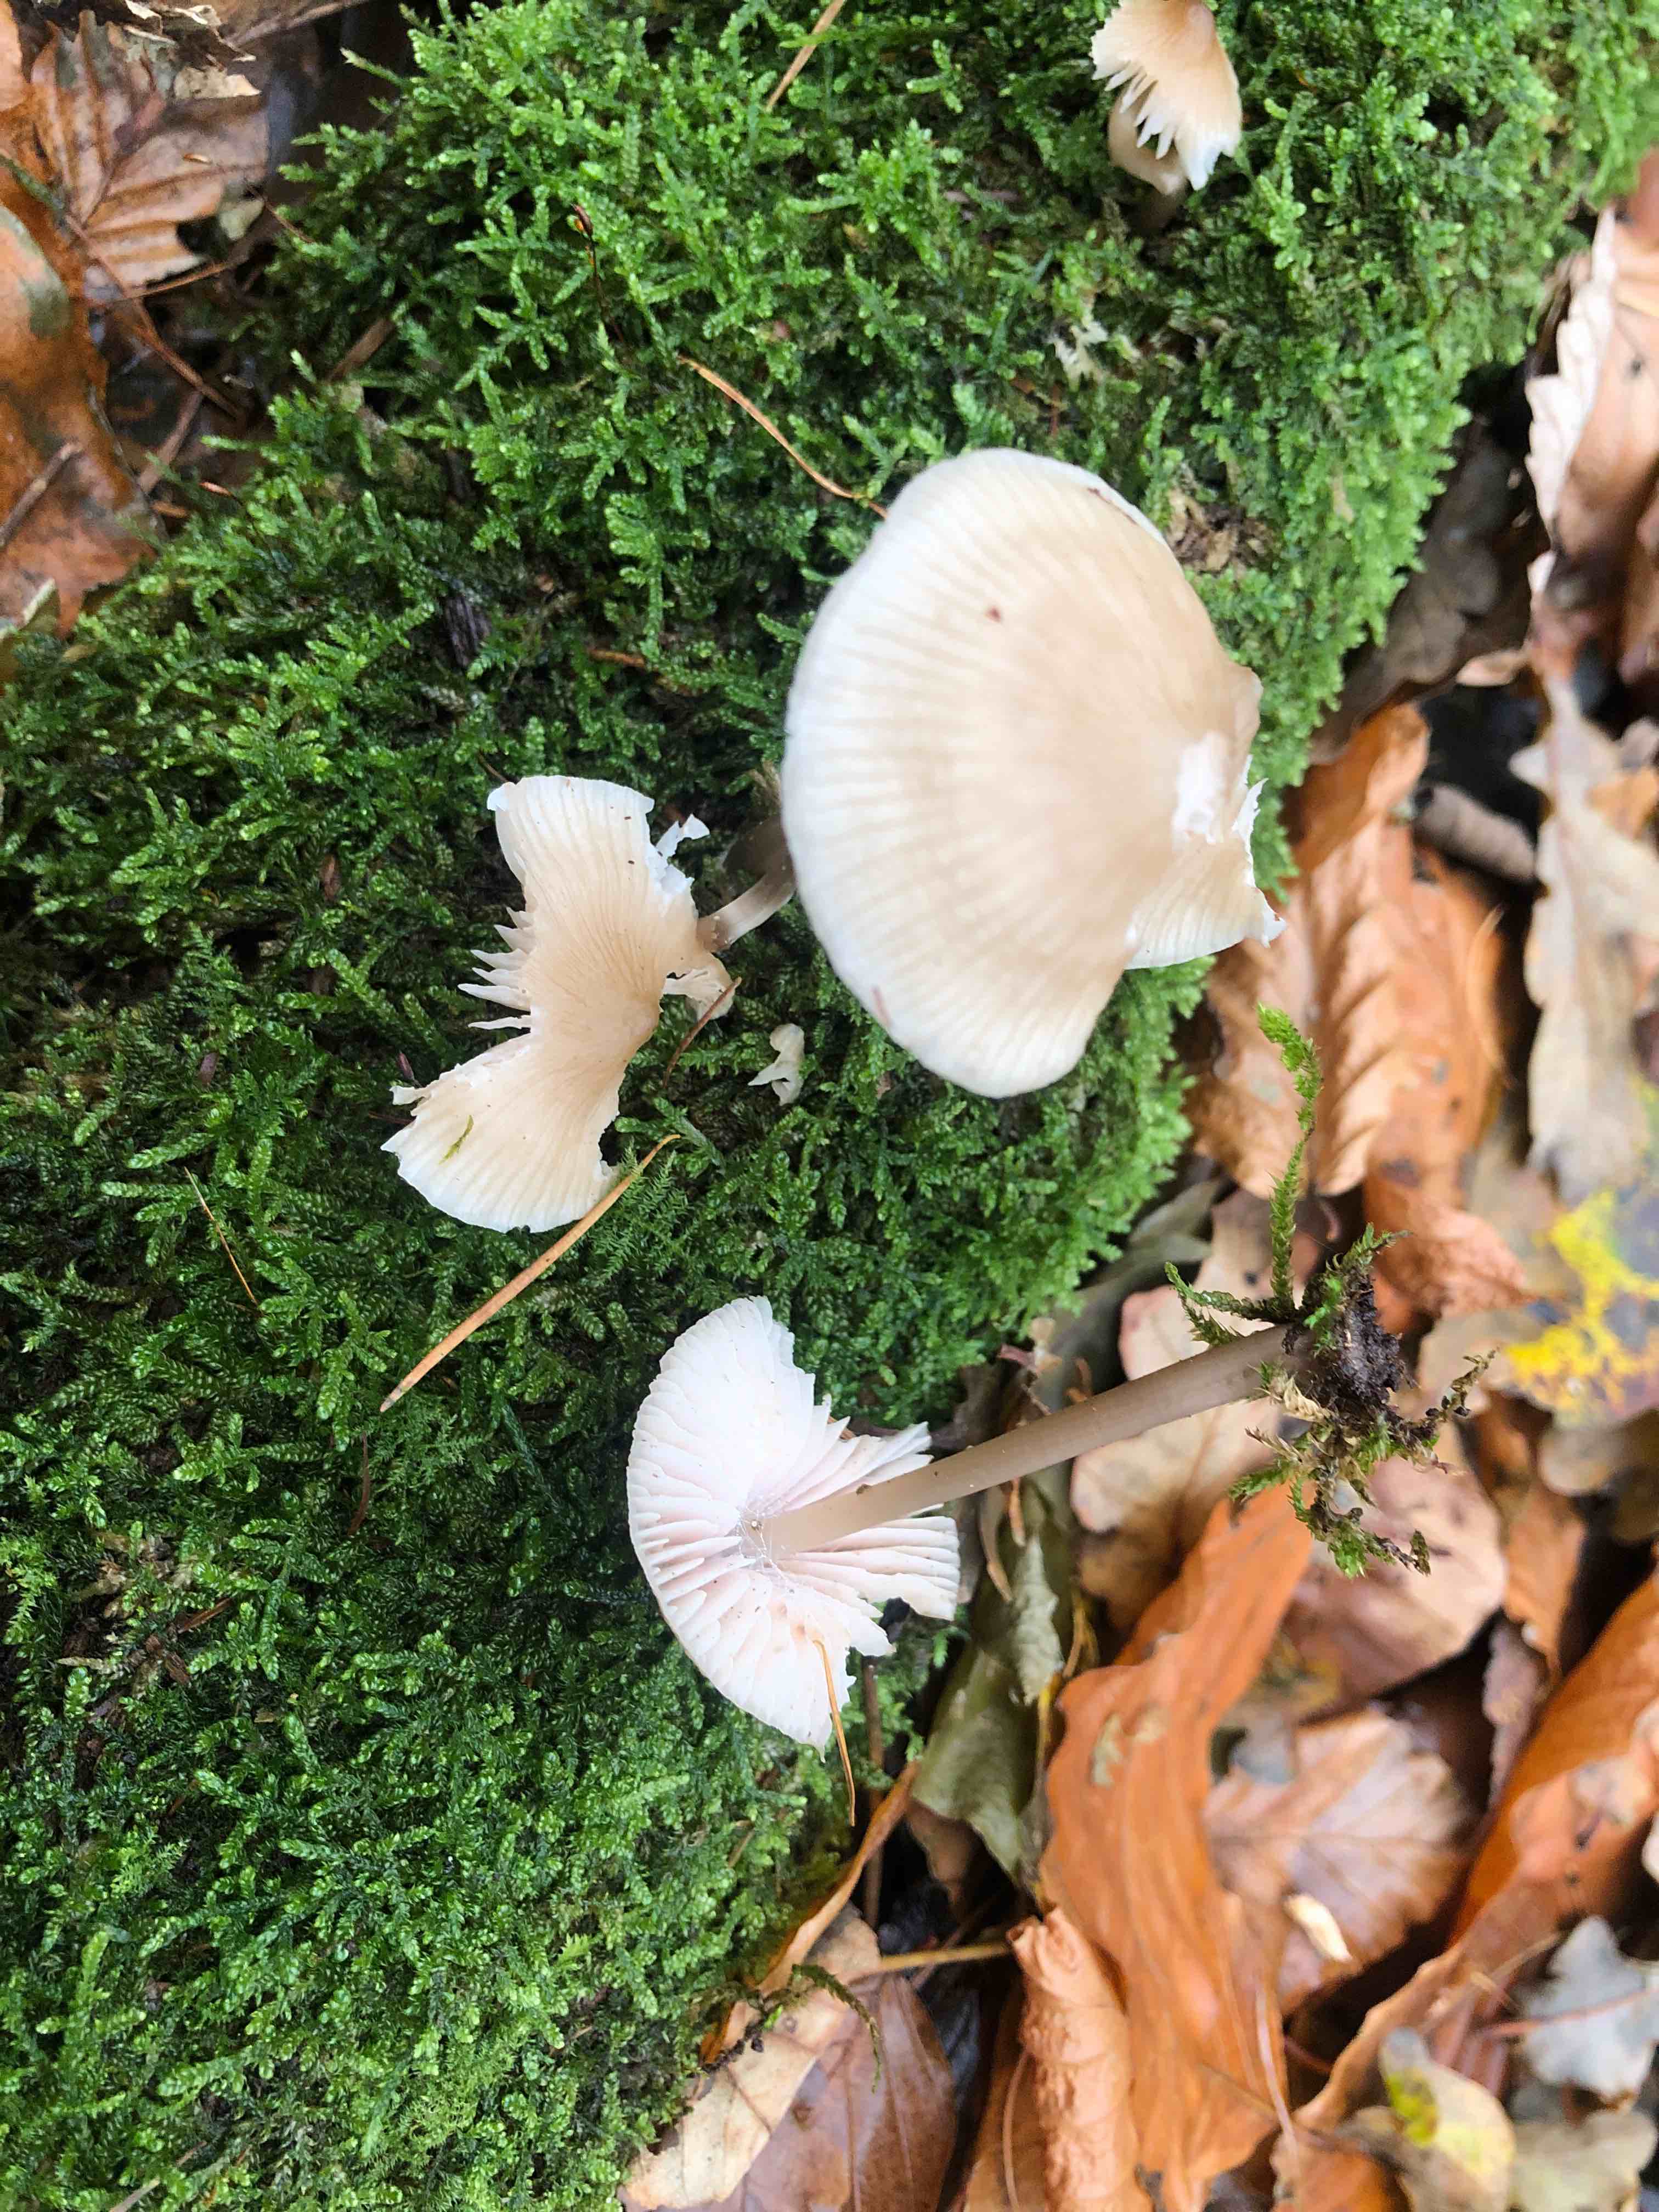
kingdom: Fungi
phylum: Basidiomycota
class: Agaricomycetes
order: Agaricales
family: Mycenaceae
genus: Mycena
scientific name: Mycena galericulata
